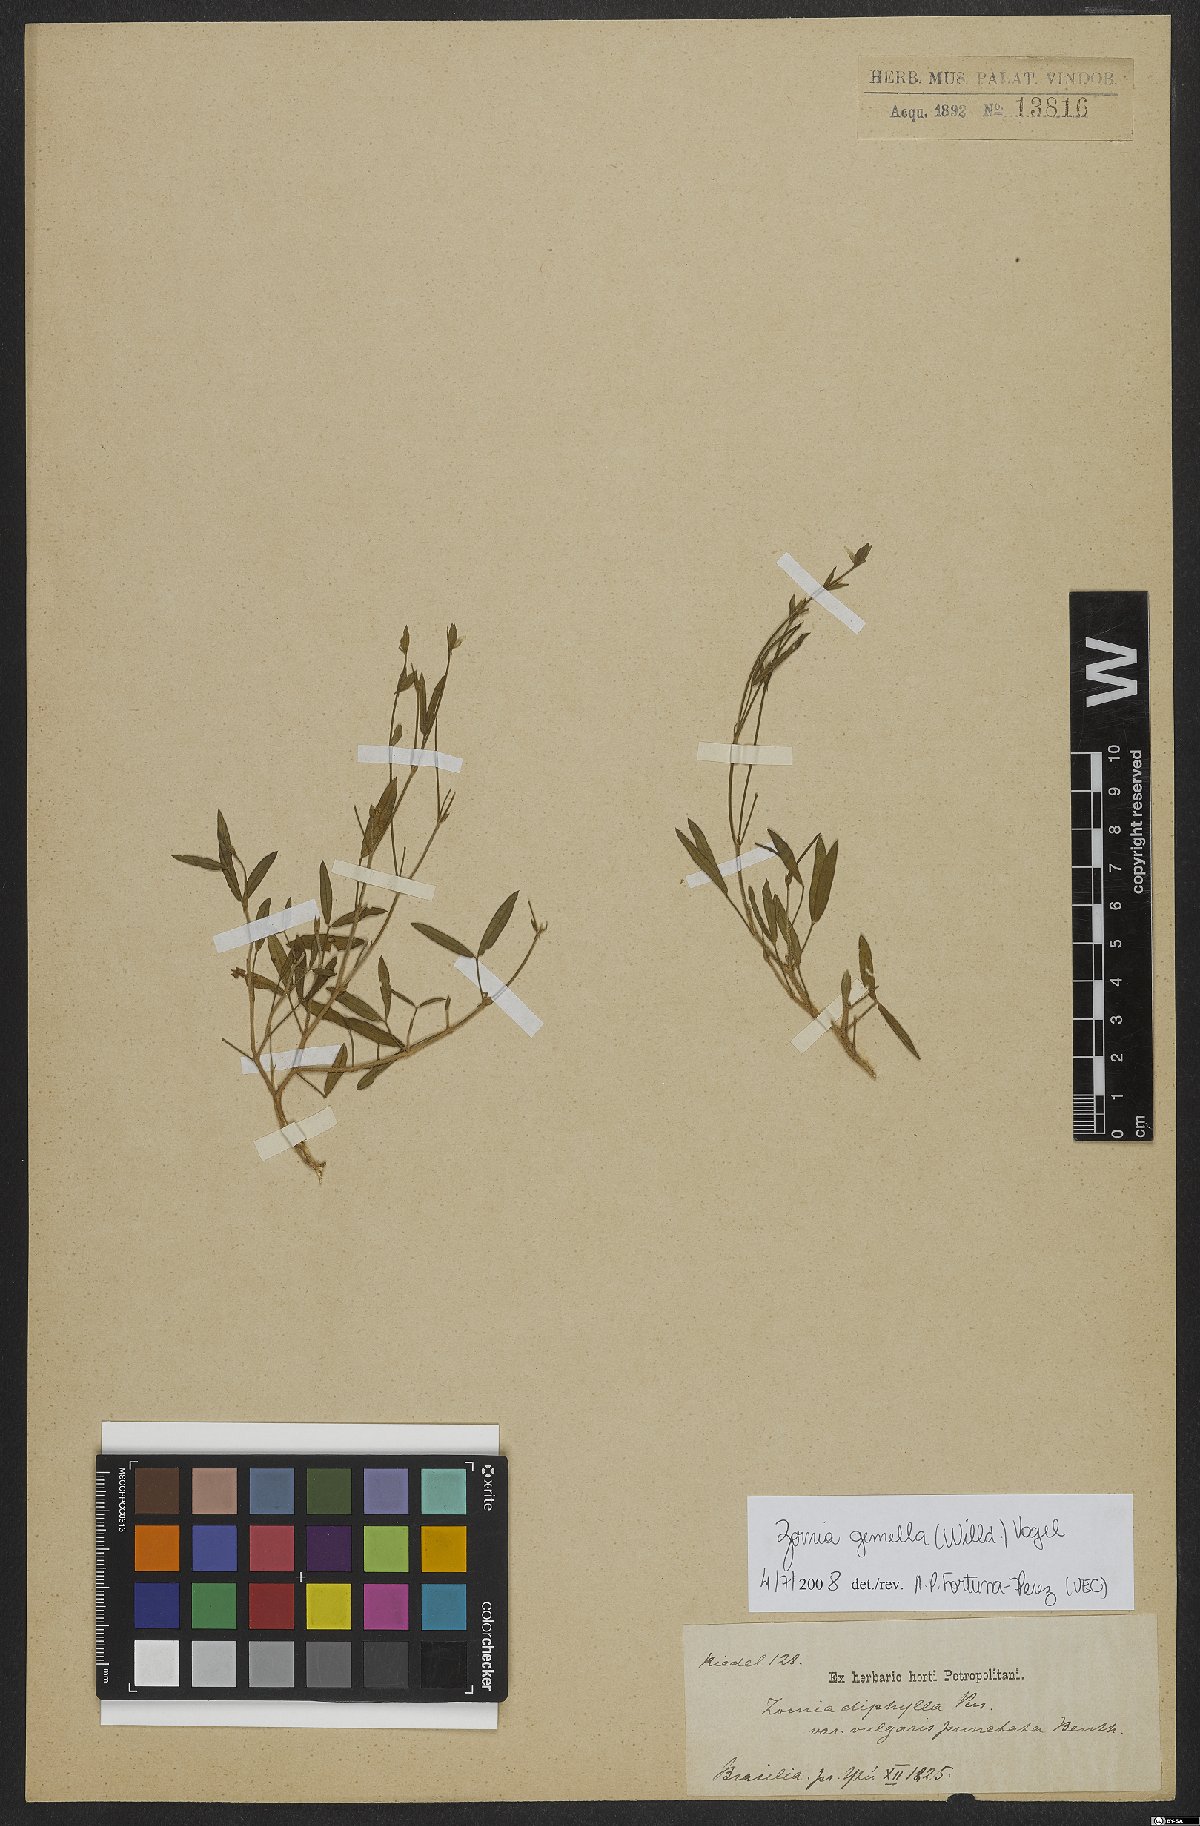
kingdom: Plantae
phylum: Tracheophyta
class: Magnoliopsida
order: Fabales
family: Fabaceae
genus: Zornia
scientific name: Zornia latifolia
